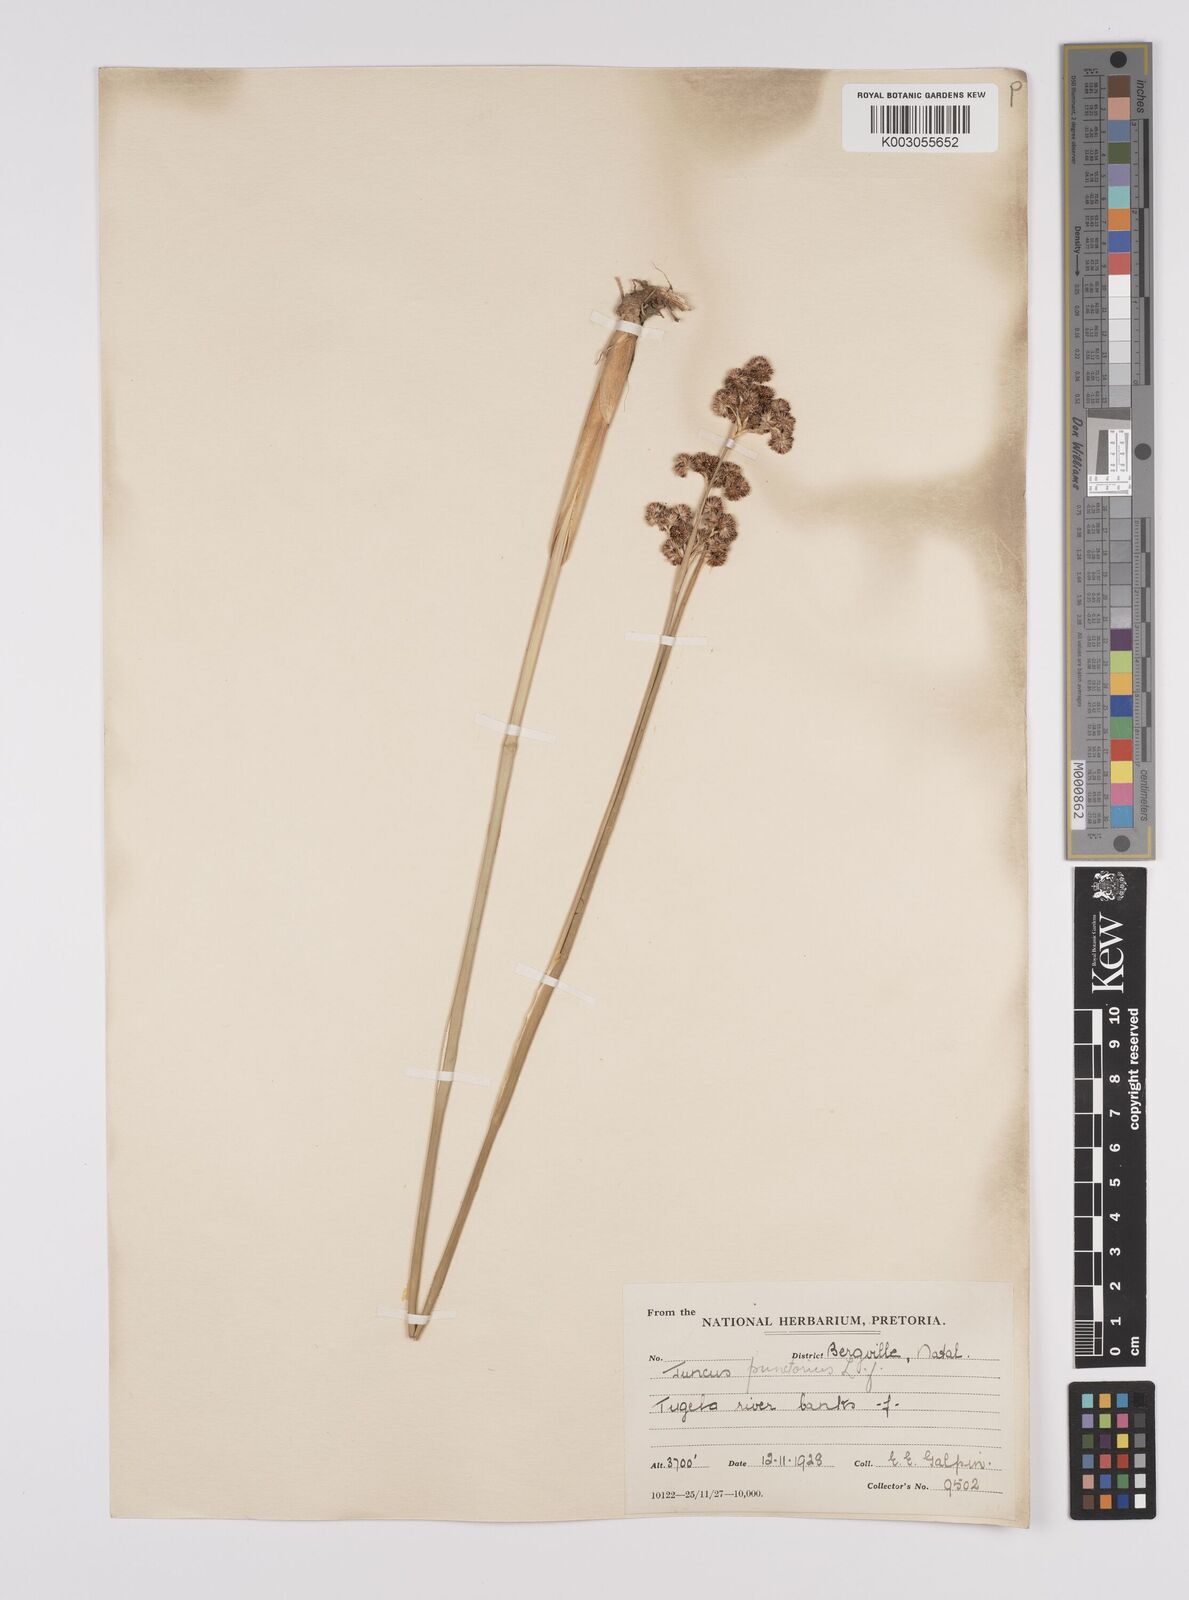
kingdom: Plantae
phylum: Tracheophyta
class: Liliopsida
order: Poales
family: Juncaceae
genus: Juncus
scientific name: Juncus punctorius
